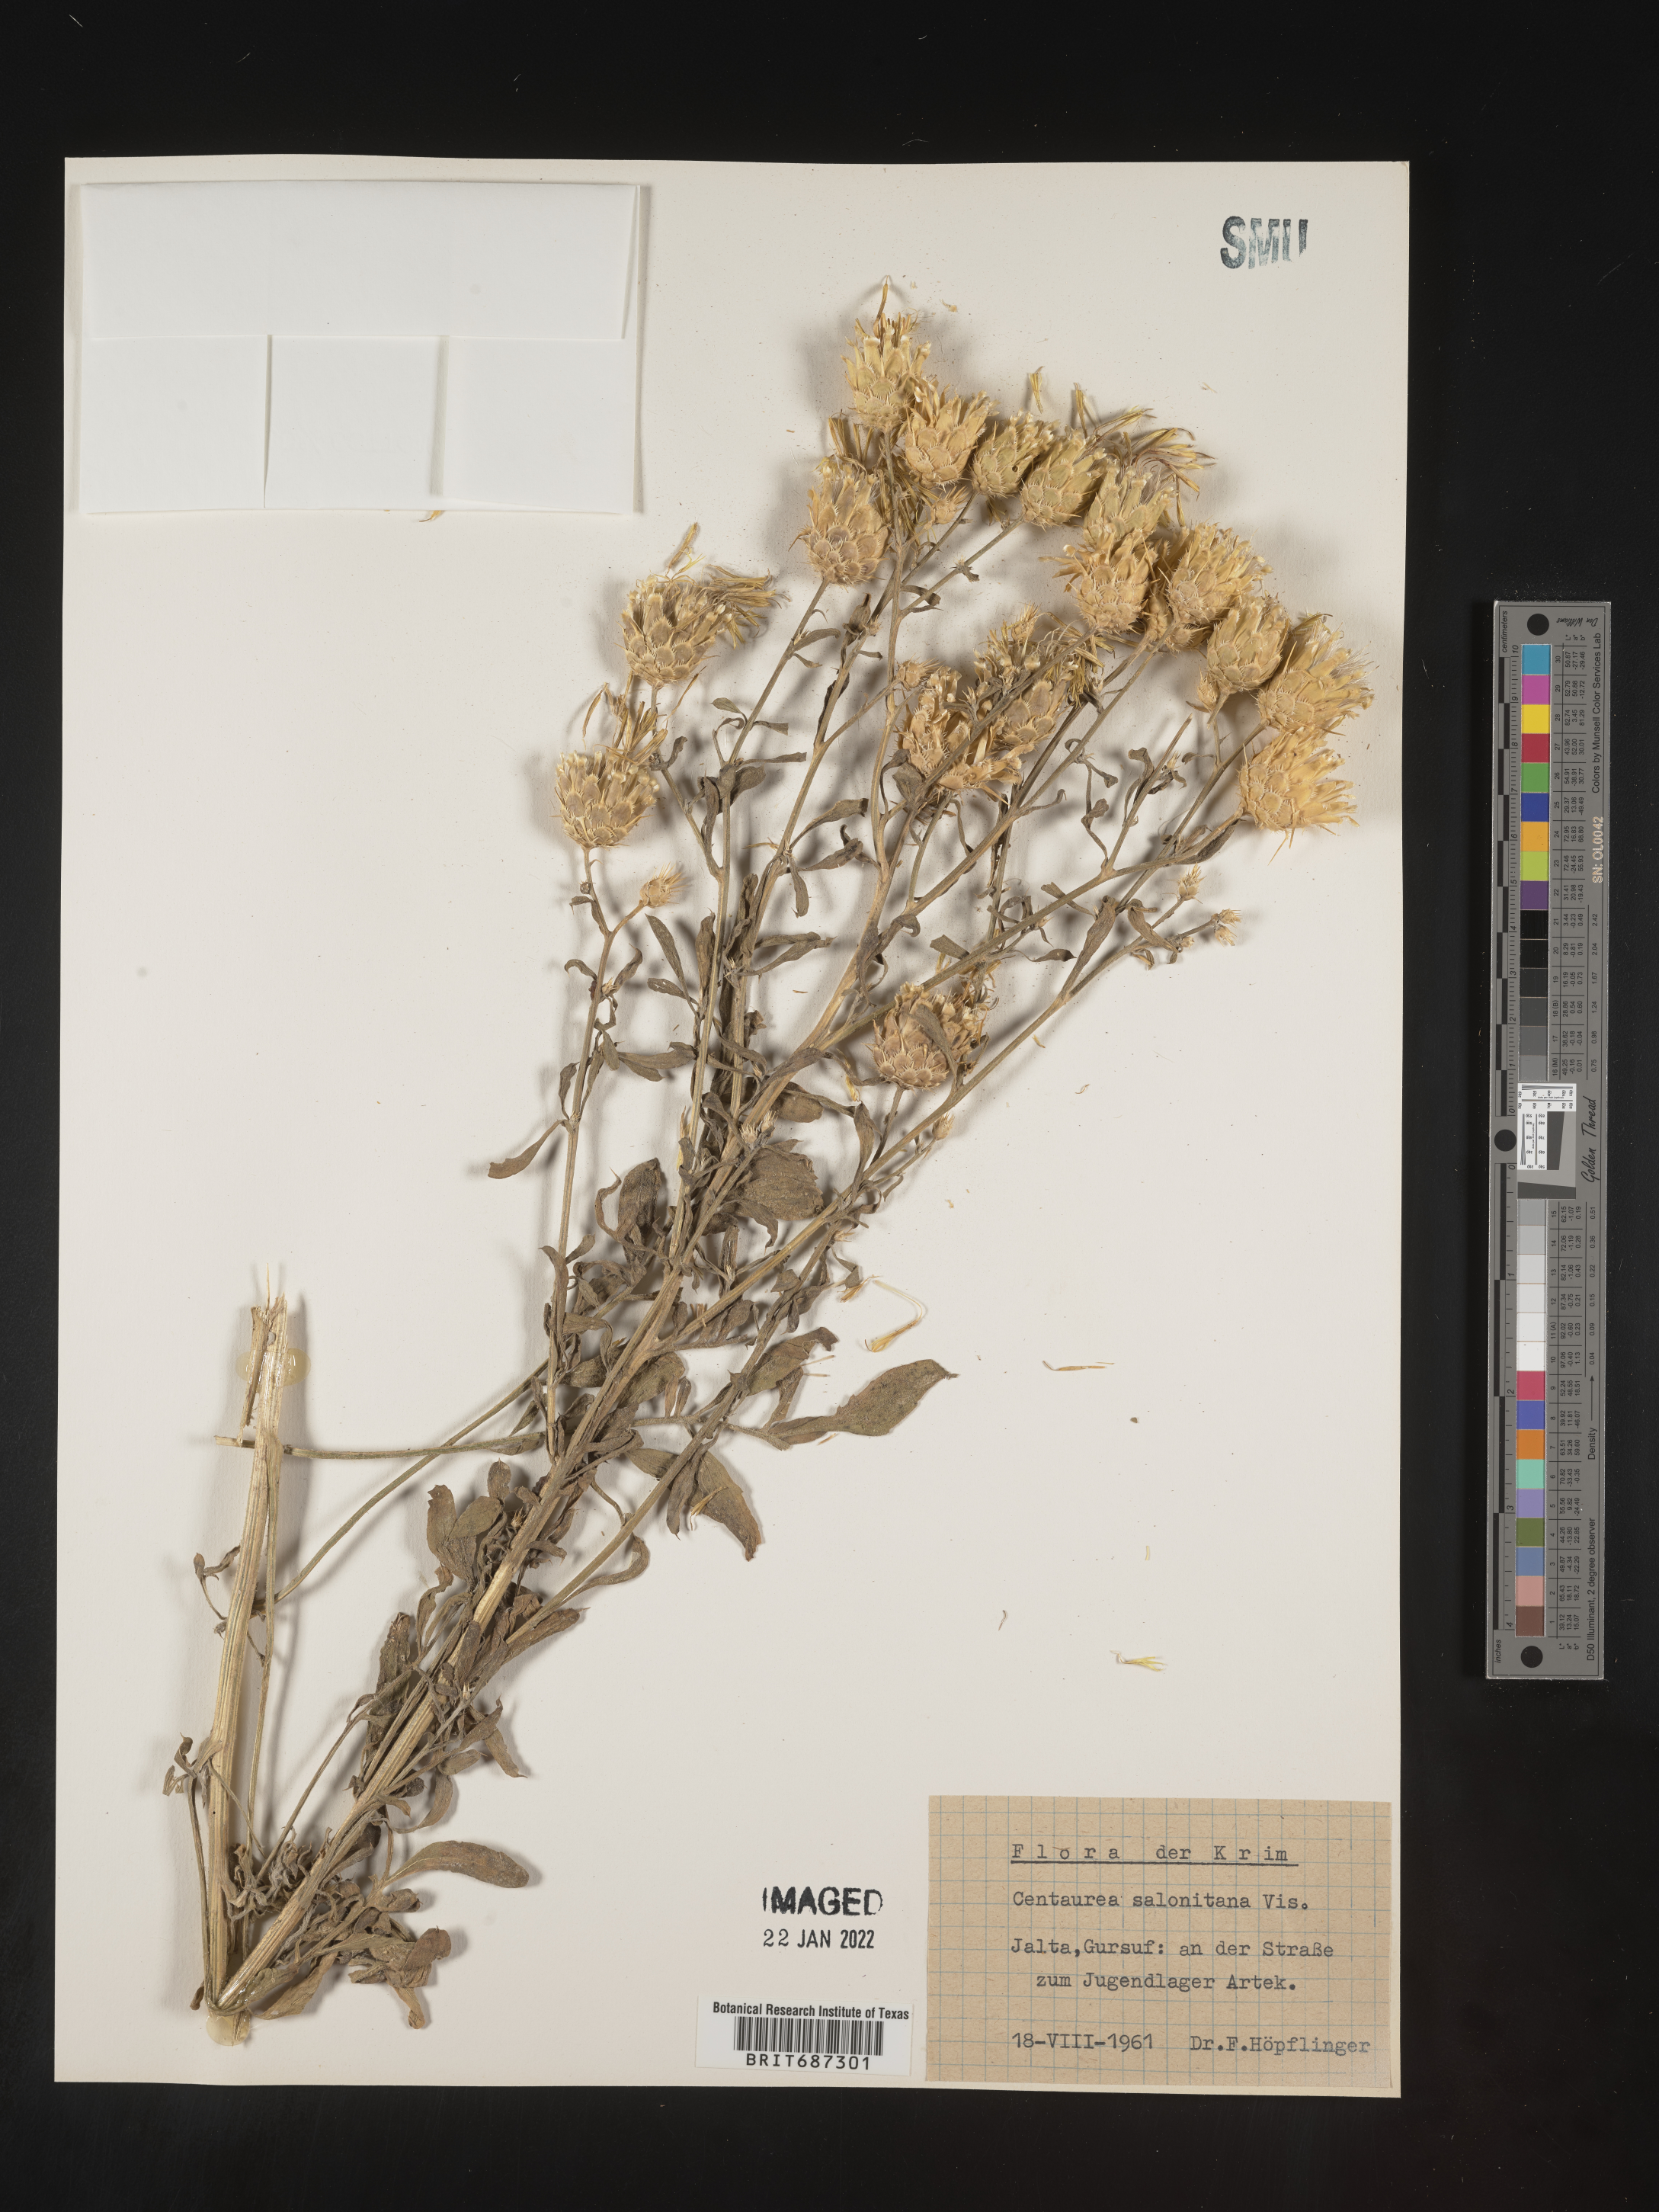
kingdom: Plantae
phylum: Tracheophyta
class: Magnoliopsida
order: Asterales
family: Asteraceae
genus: Centaurea
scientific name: Centaurea
